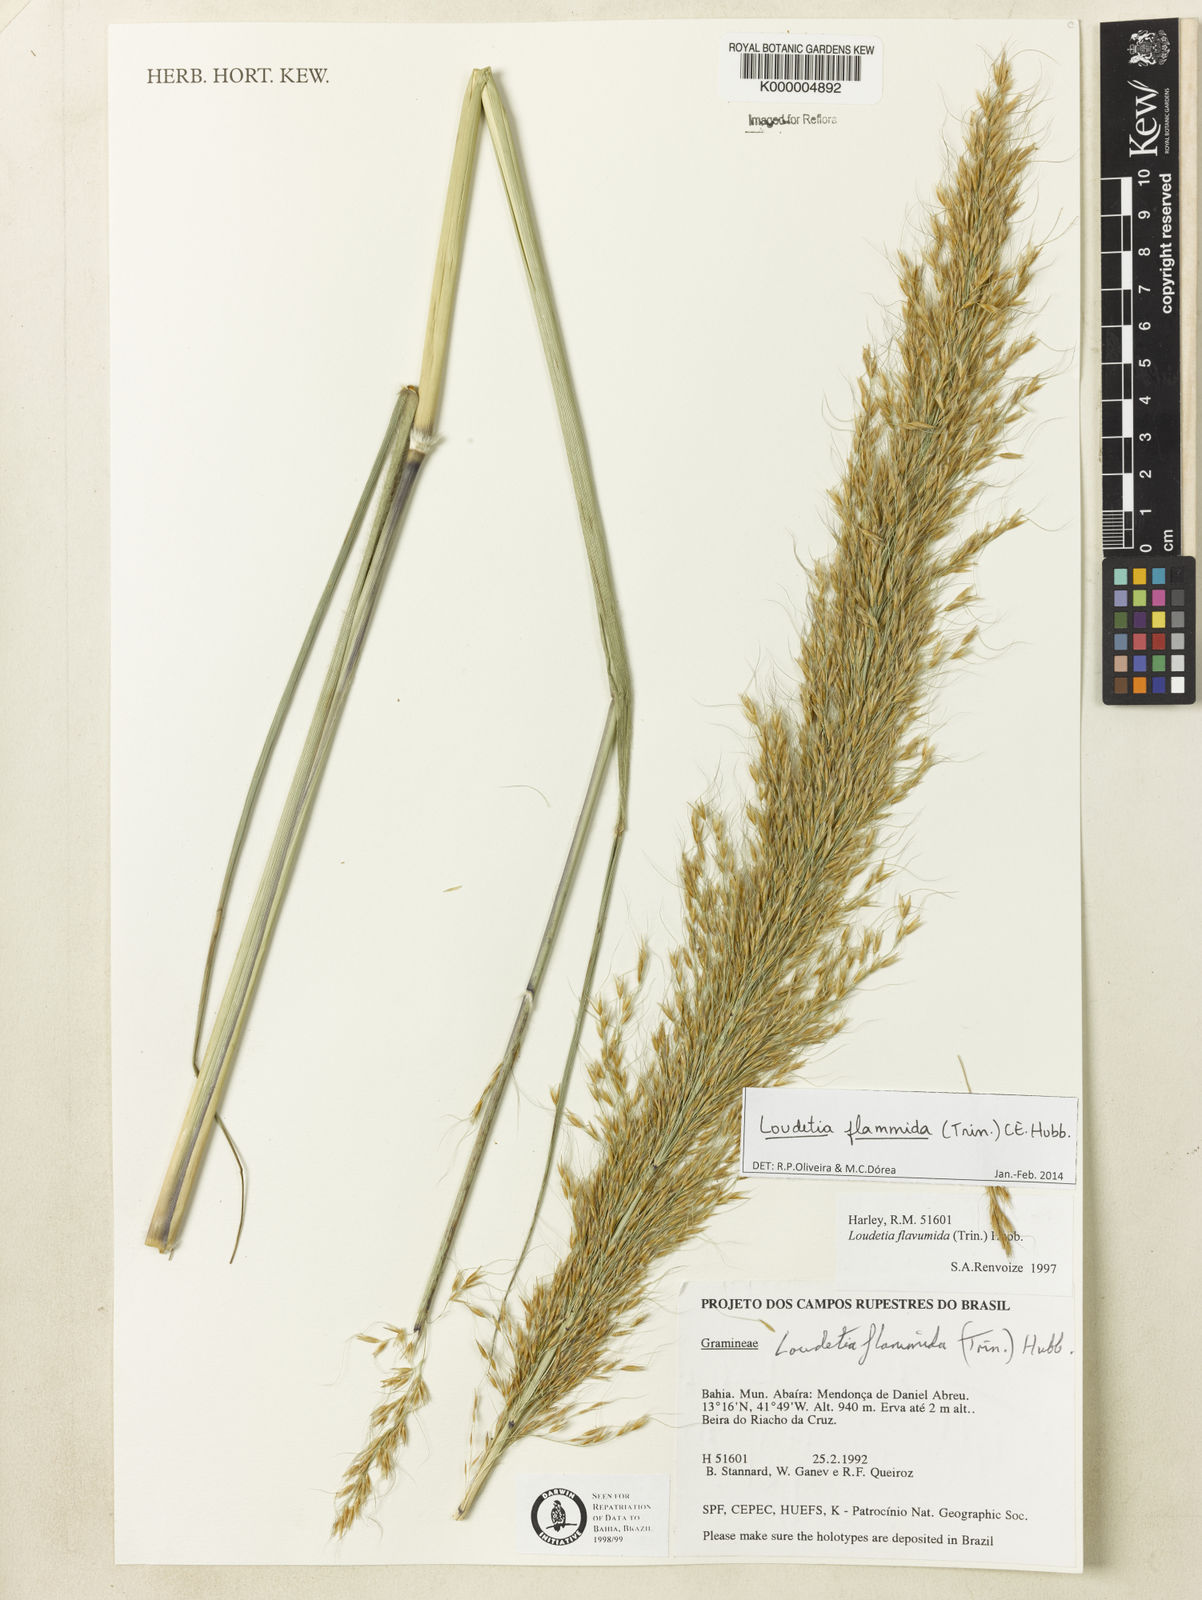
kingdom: Plantae
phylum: Tracheophyta
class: Liliopsida
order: Poales
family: Poaceae
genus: Loudetia
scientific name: Loudetia flammida
